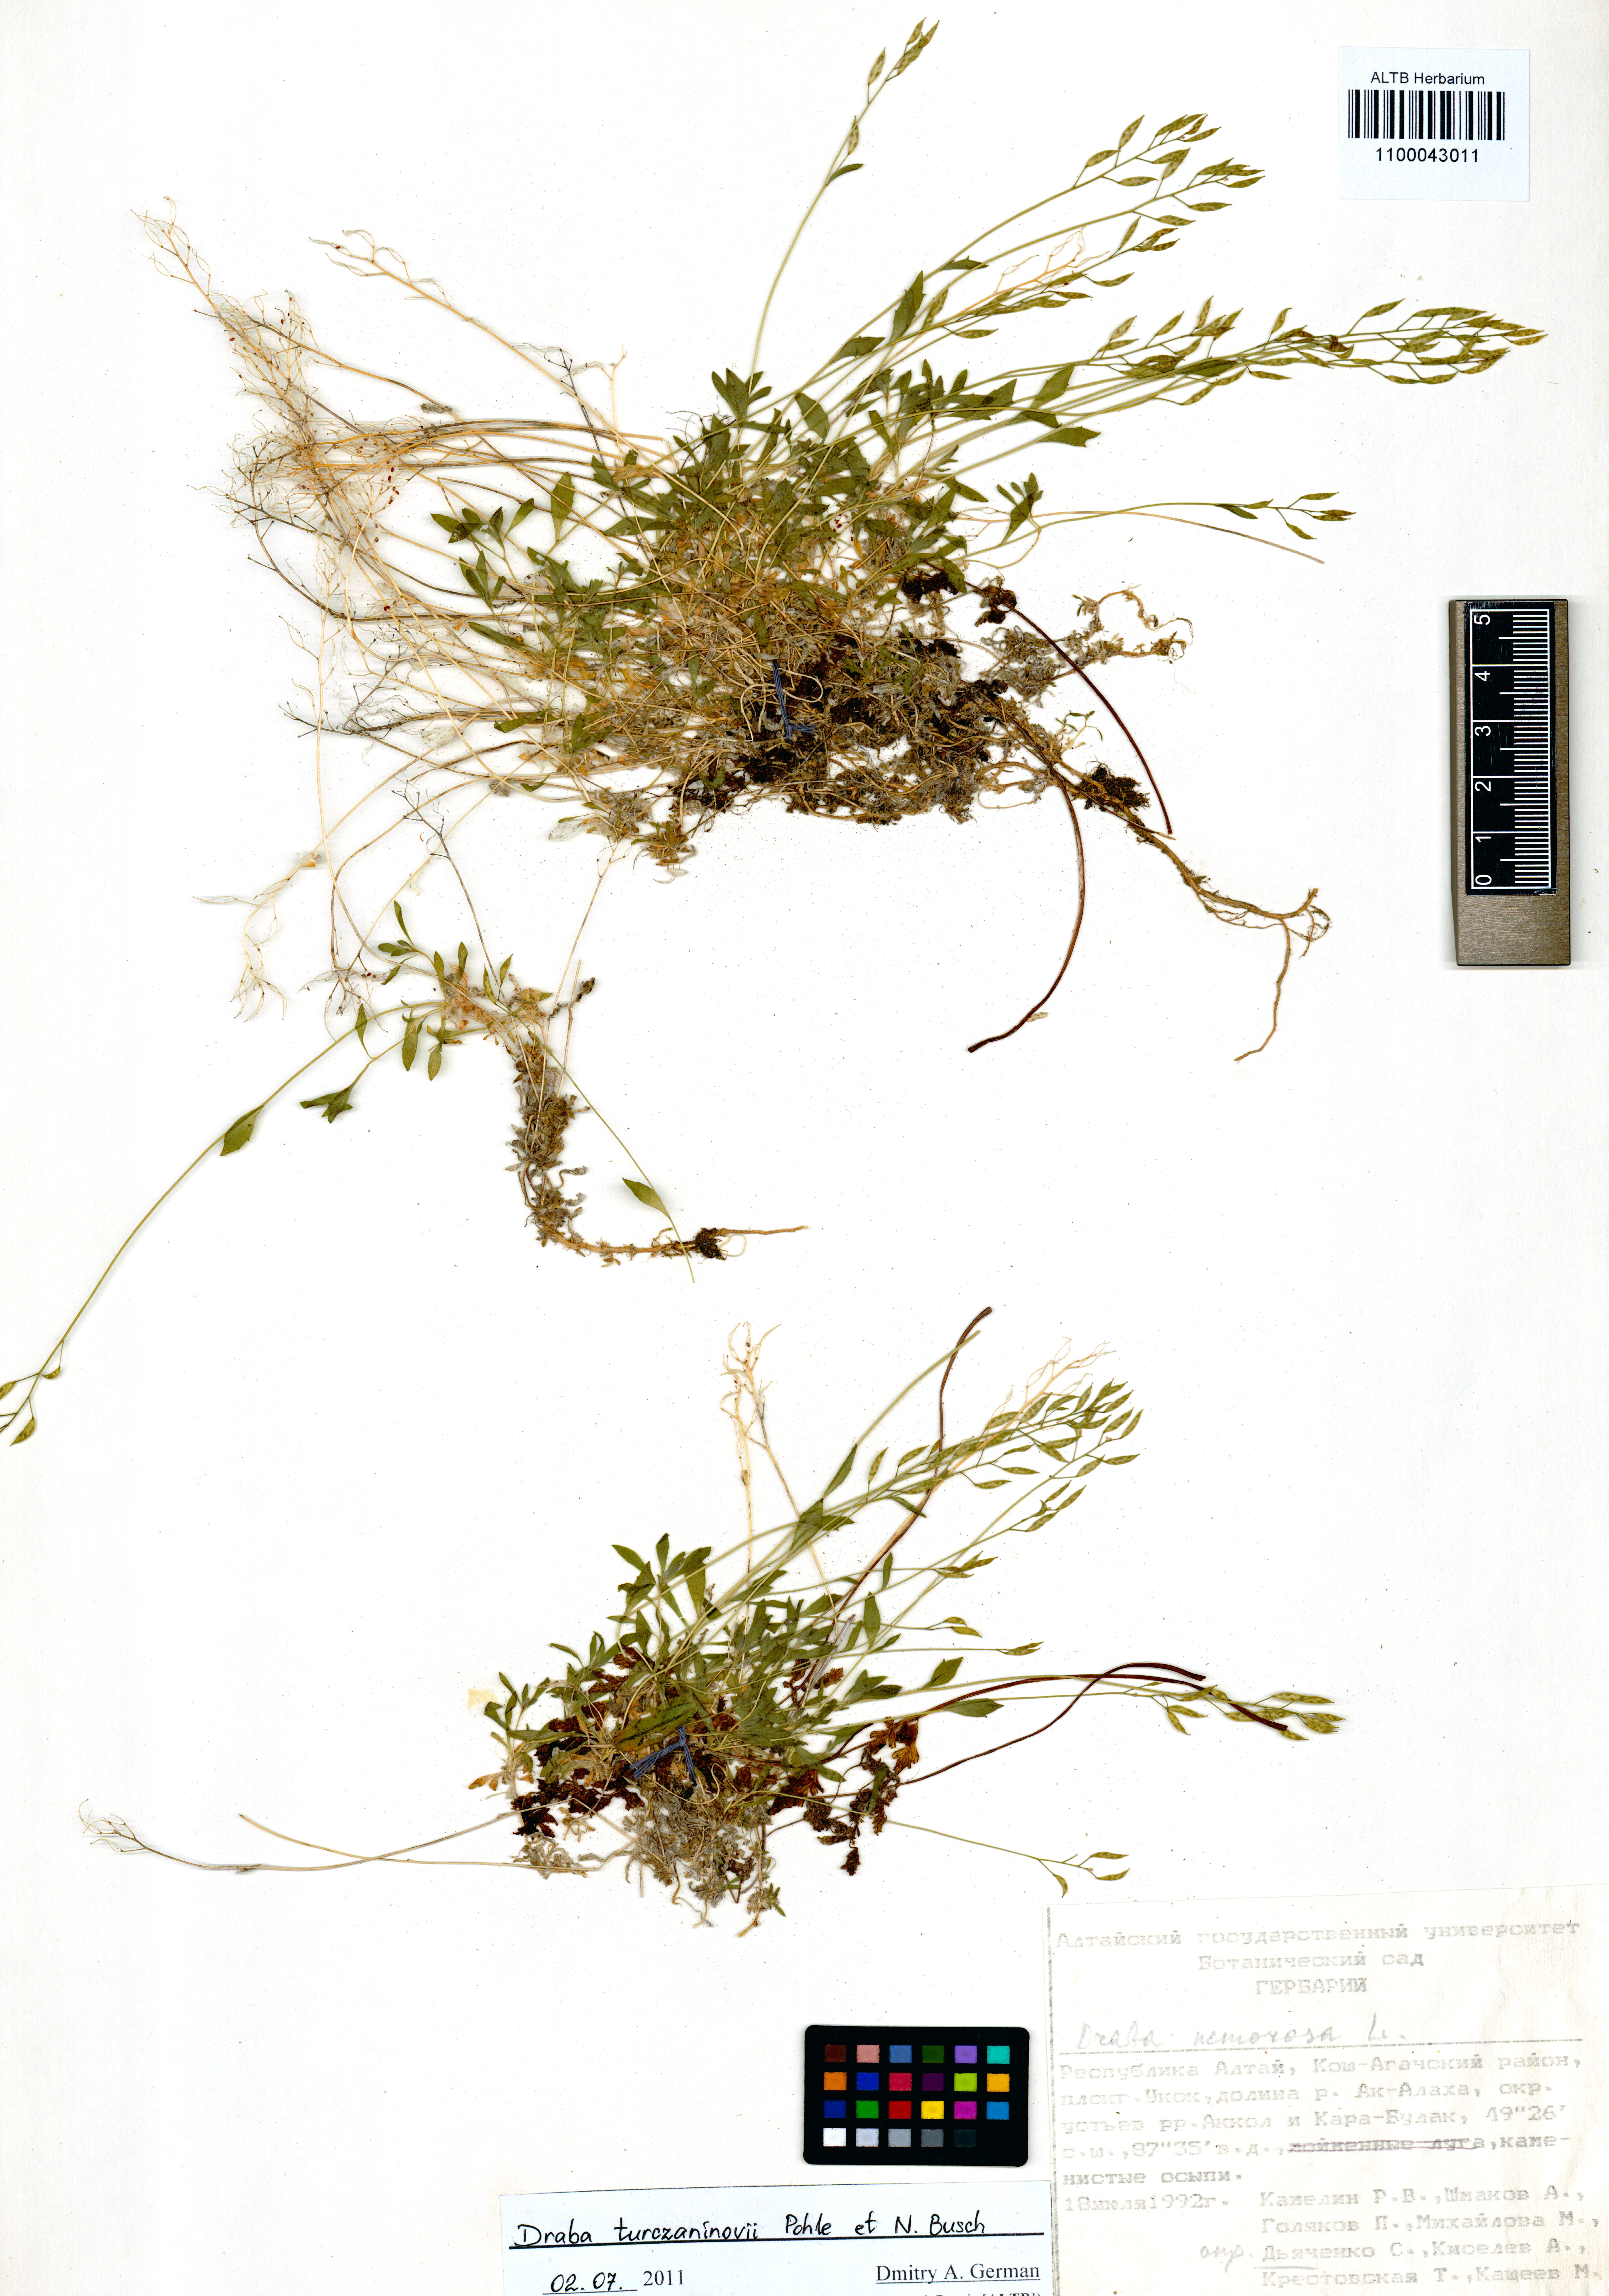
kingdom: Plantae
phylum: Tracheophyta
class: Magnoliopsida
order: Brassicales
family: Brassicaceae
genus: Draba
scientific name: Draba turczaninovii
